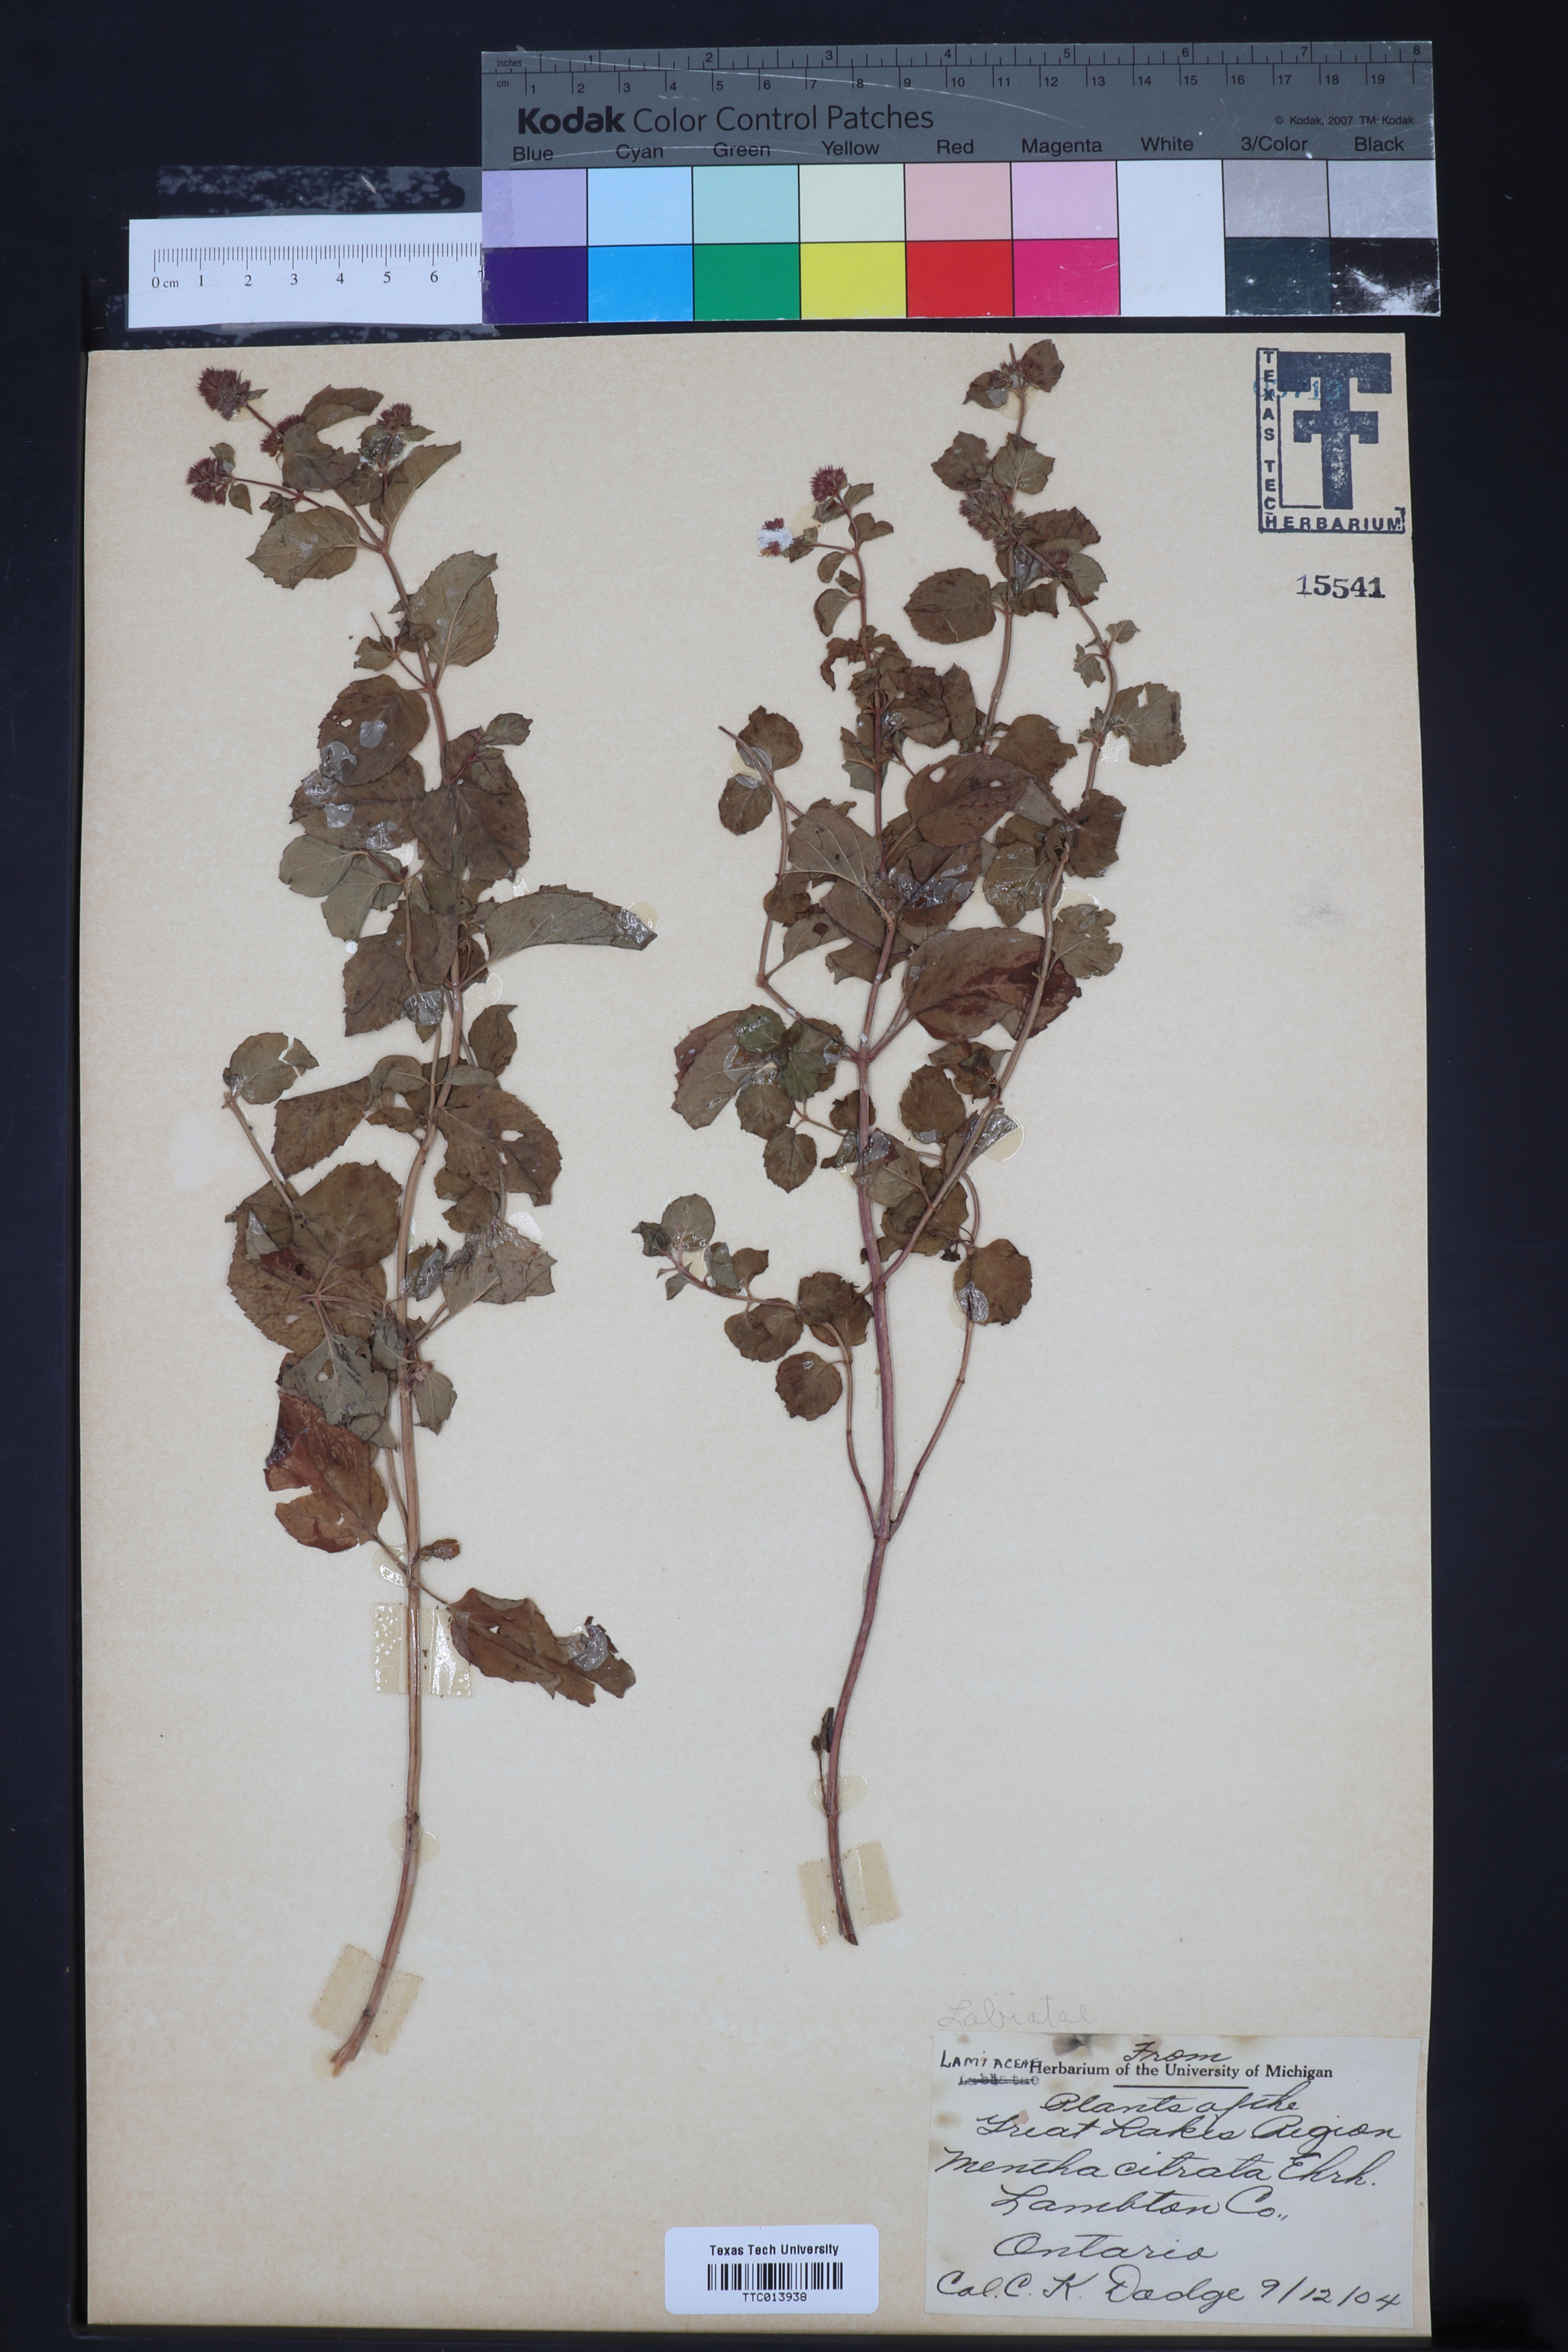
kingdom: Plantae
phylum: Tracheophyta
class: Magnoliopsida
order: Lamiales
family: Lamiaceae
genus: Mentha
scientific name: Mentha aquatica
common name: Water mint
